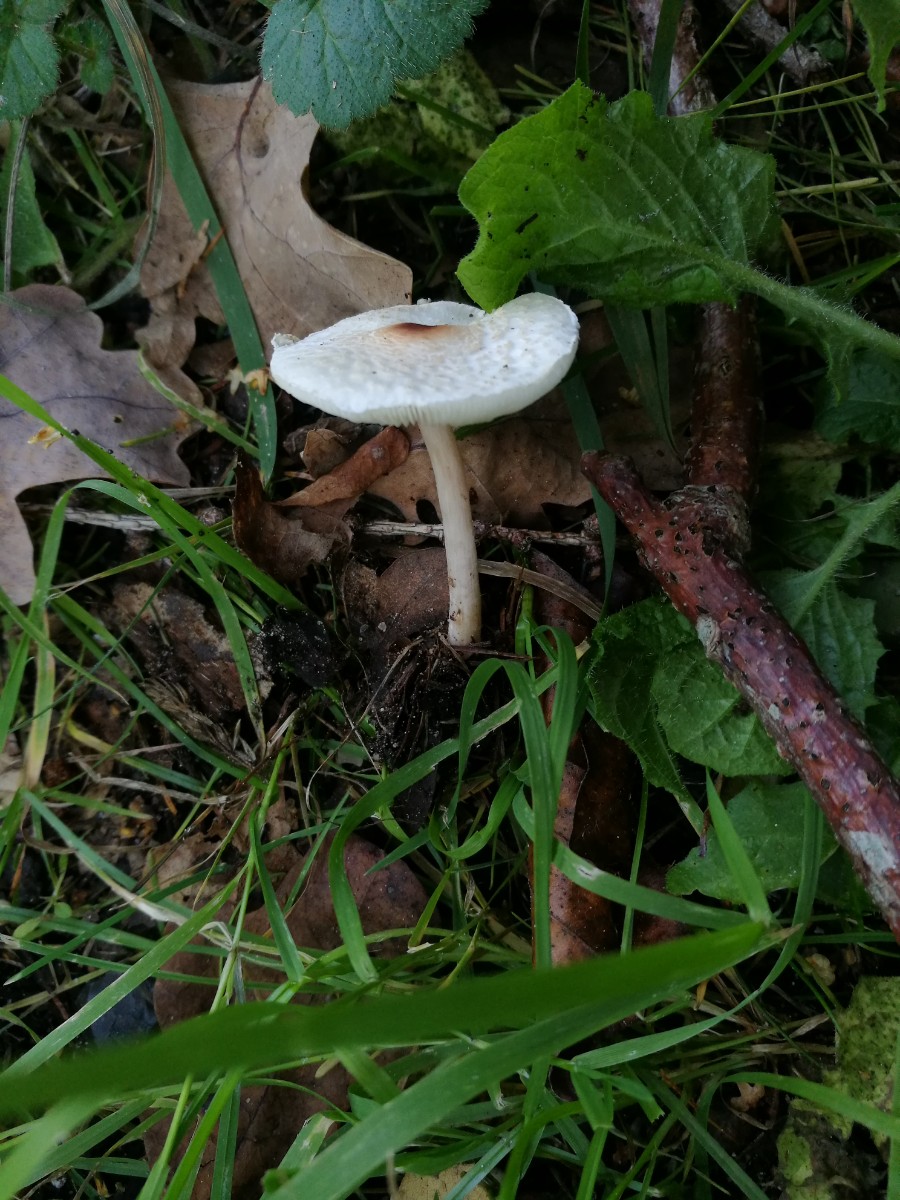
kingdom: Fungi
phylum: Basidiomycota
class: Agaricomycetes
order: Agaricales
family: Agaricaceae
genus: Lepiota
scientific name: Lepiota cristata
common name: stinkende parasolhat
